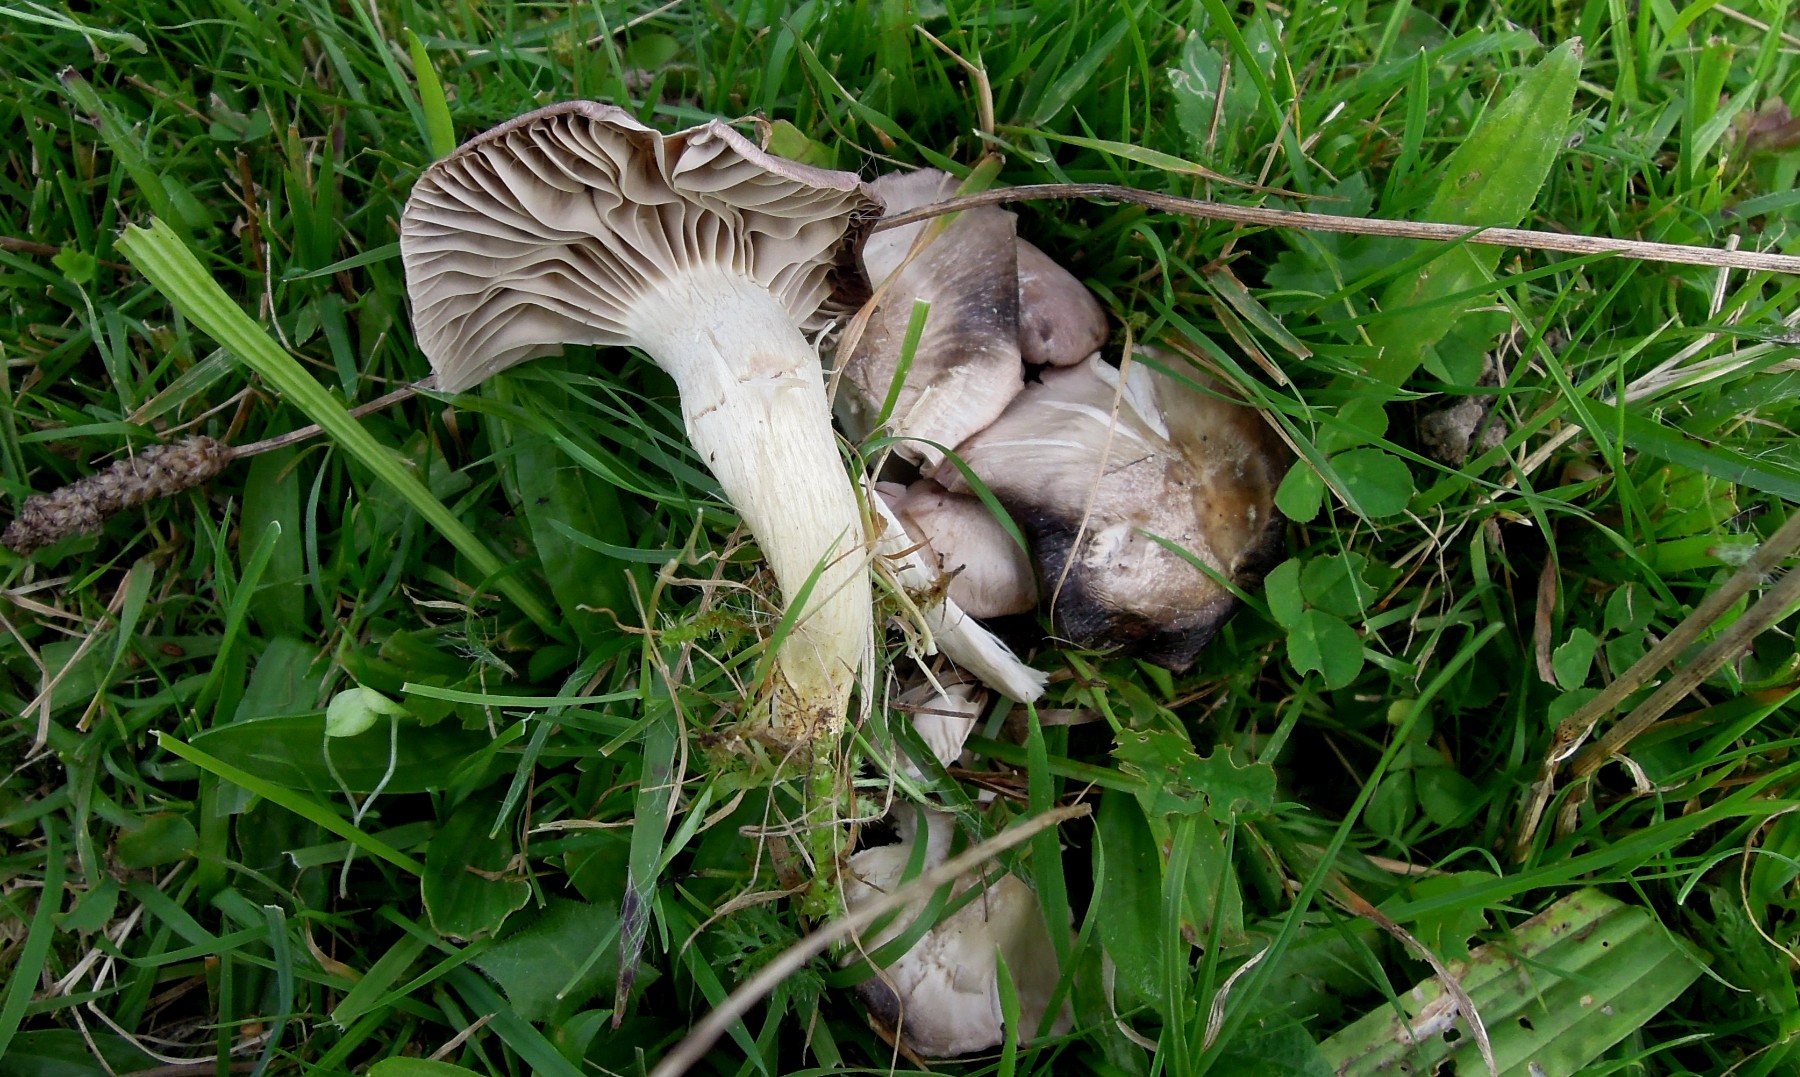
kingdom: Fungi
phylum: Basidiomycota
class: Agaricomycetes
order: Agaricales
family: Hygrophoraceae
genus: Cuphophyllus
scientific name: Cuphophyllus flavipes
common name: gulfodet vokshat
